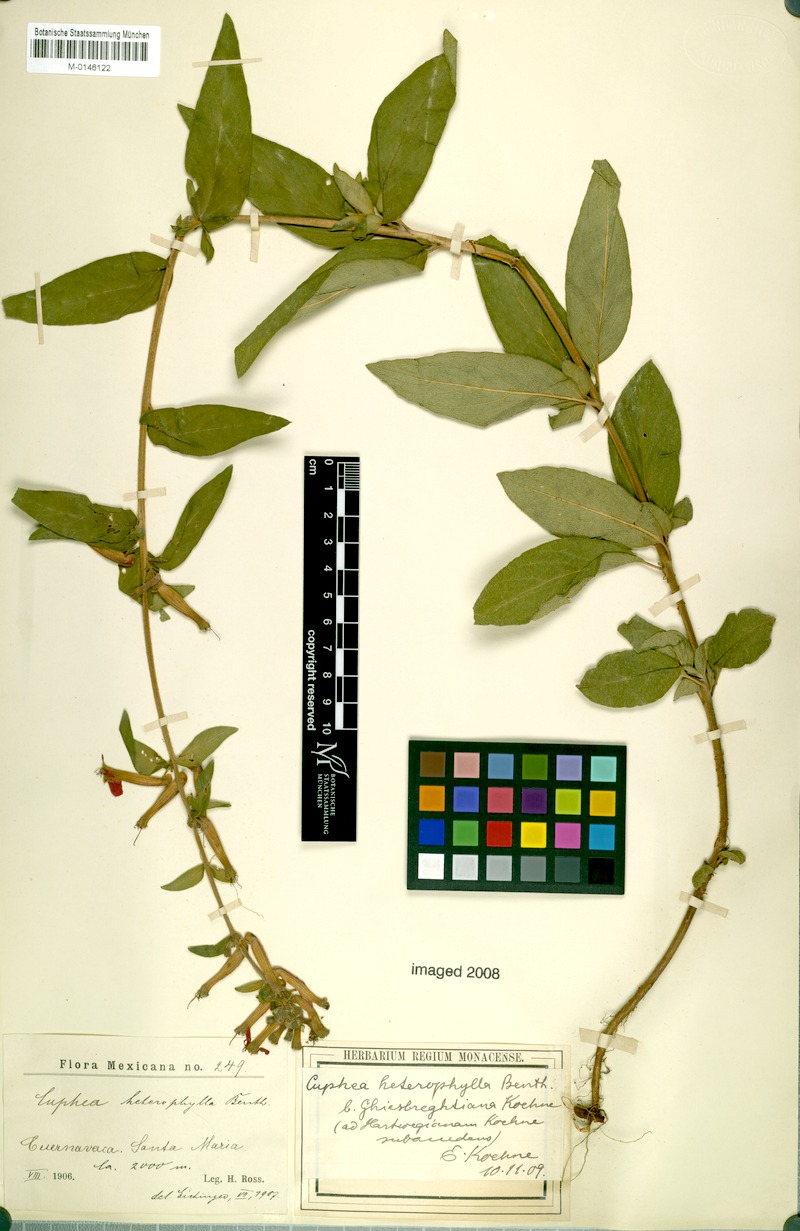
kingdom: Plantae
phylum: Tracheophyta
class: Magnoliopsida
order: Myrtales
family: Lythraceae
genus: Cuphea
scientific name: Cuphea heterophylla
